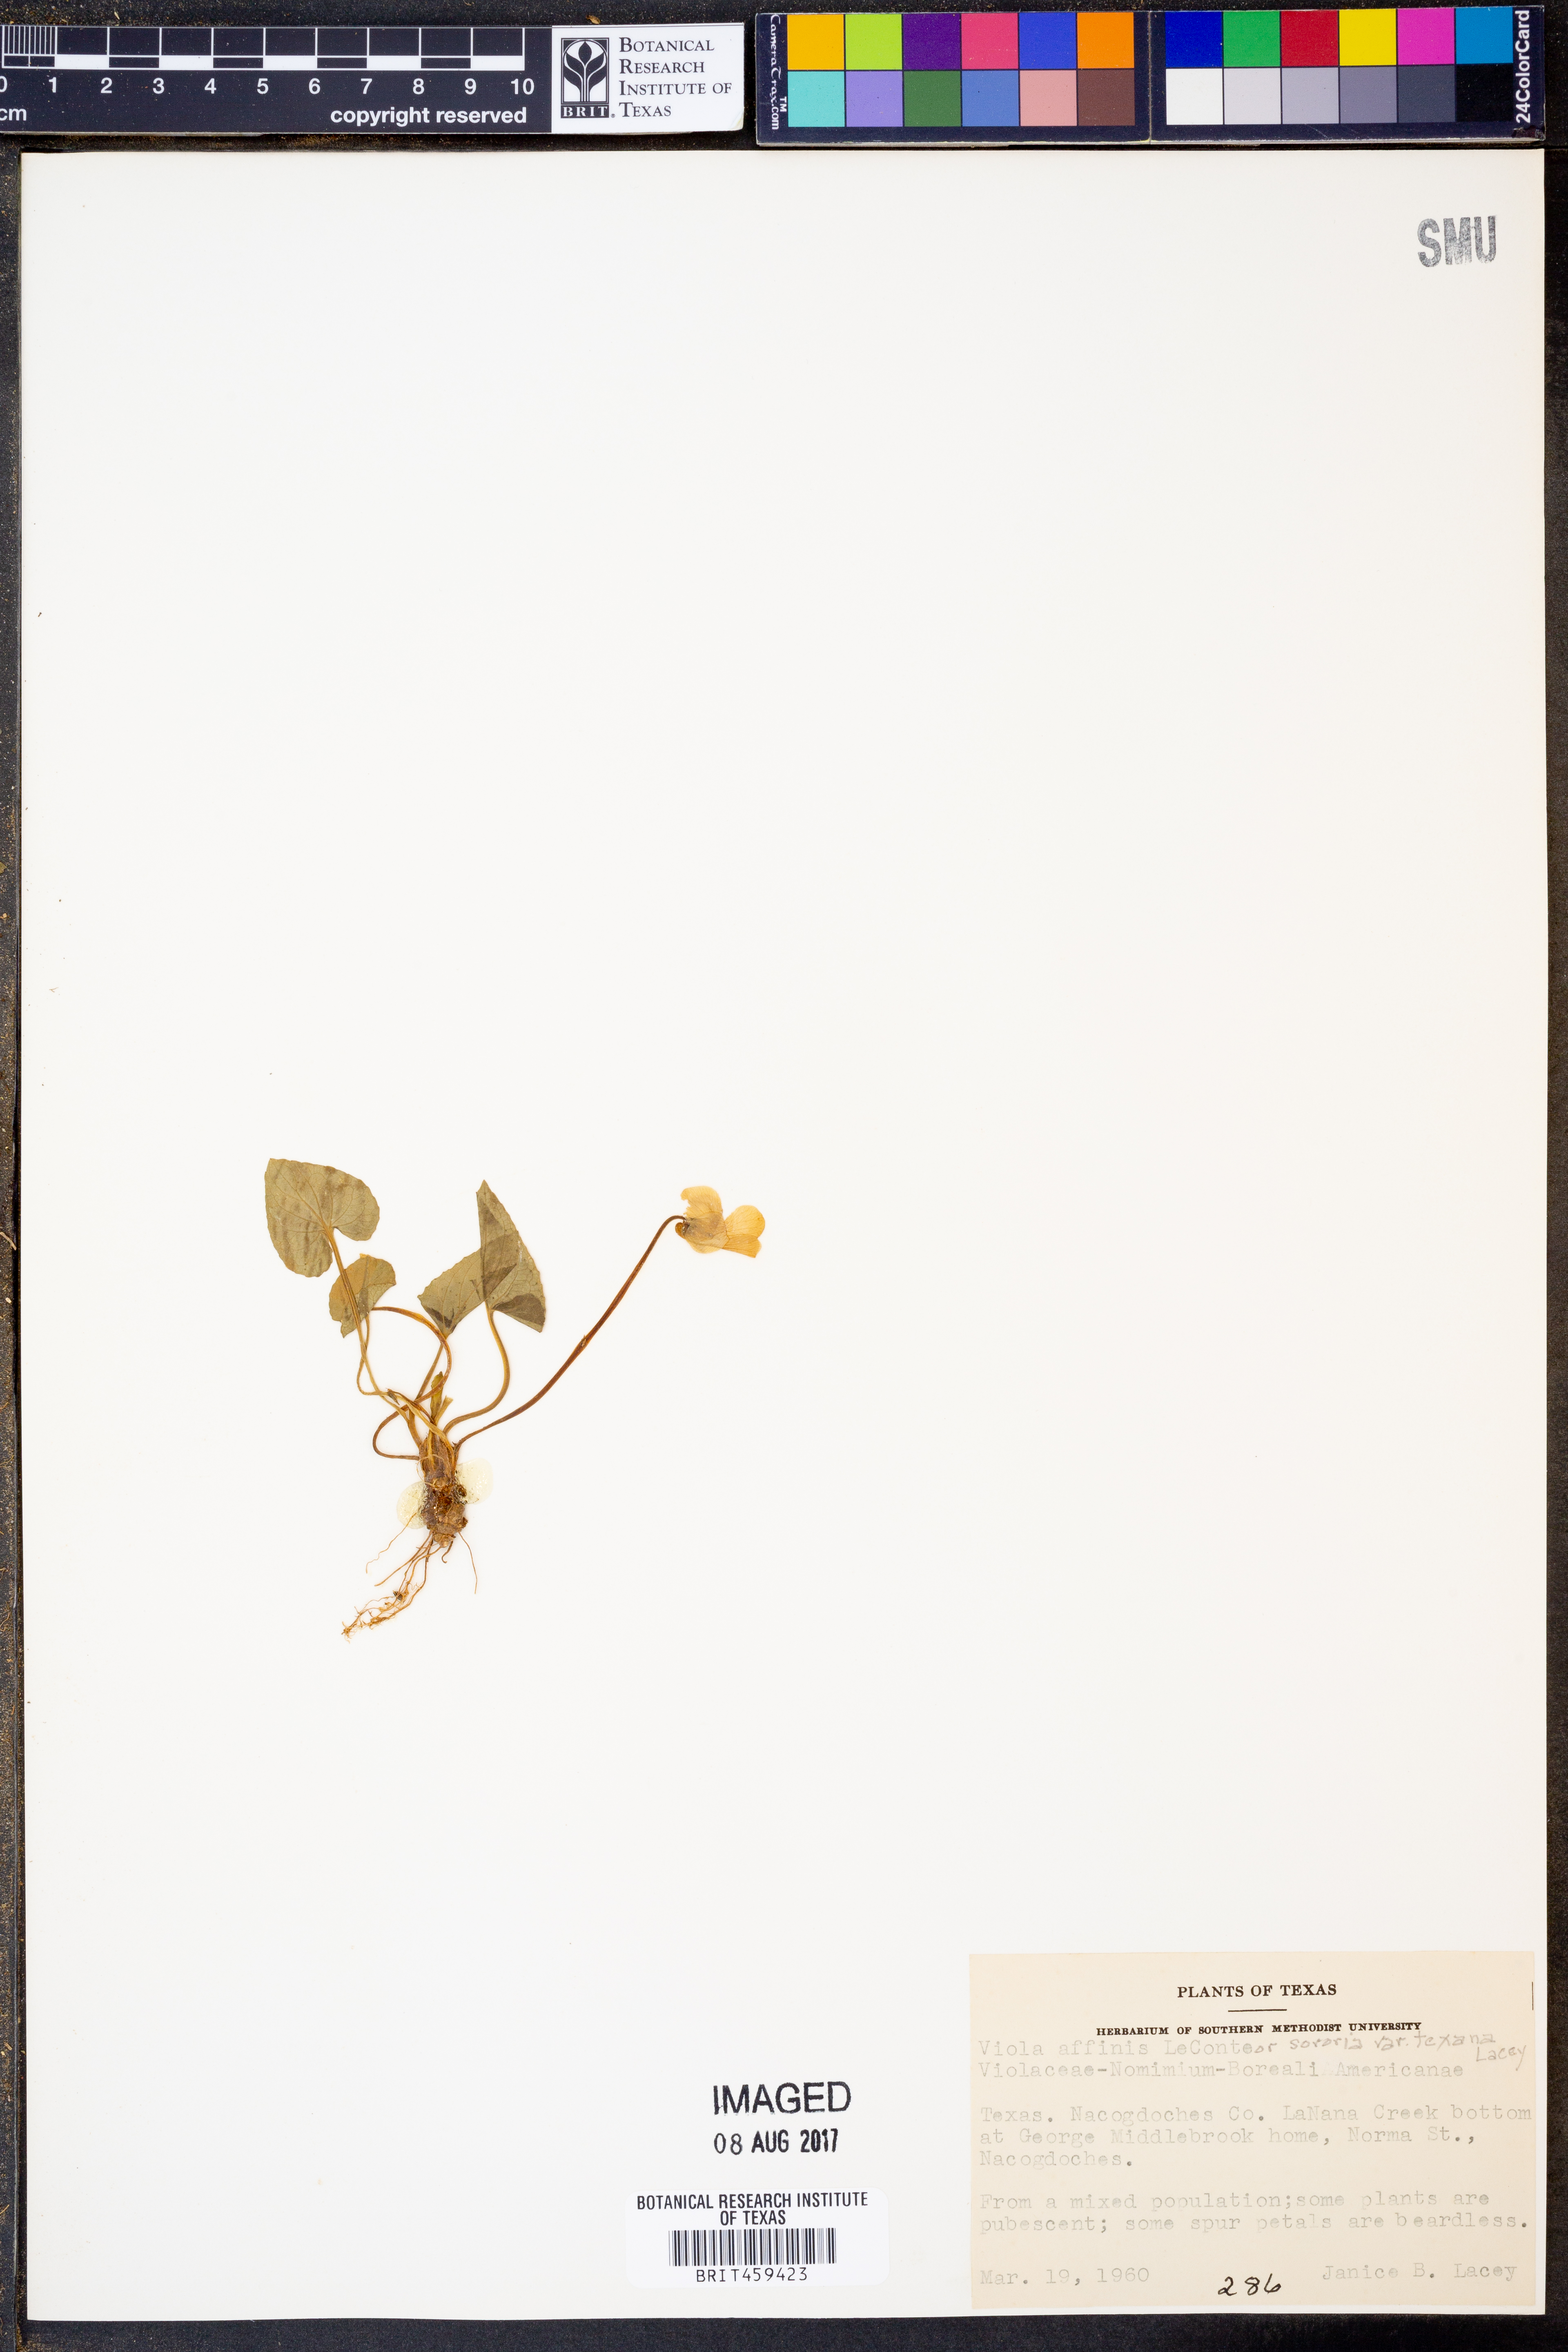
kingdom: Plantae
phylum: Tracheophyta
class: Magnoliopsida
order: Malpighiales
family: Violaceae
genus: Viola
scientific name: Viola
